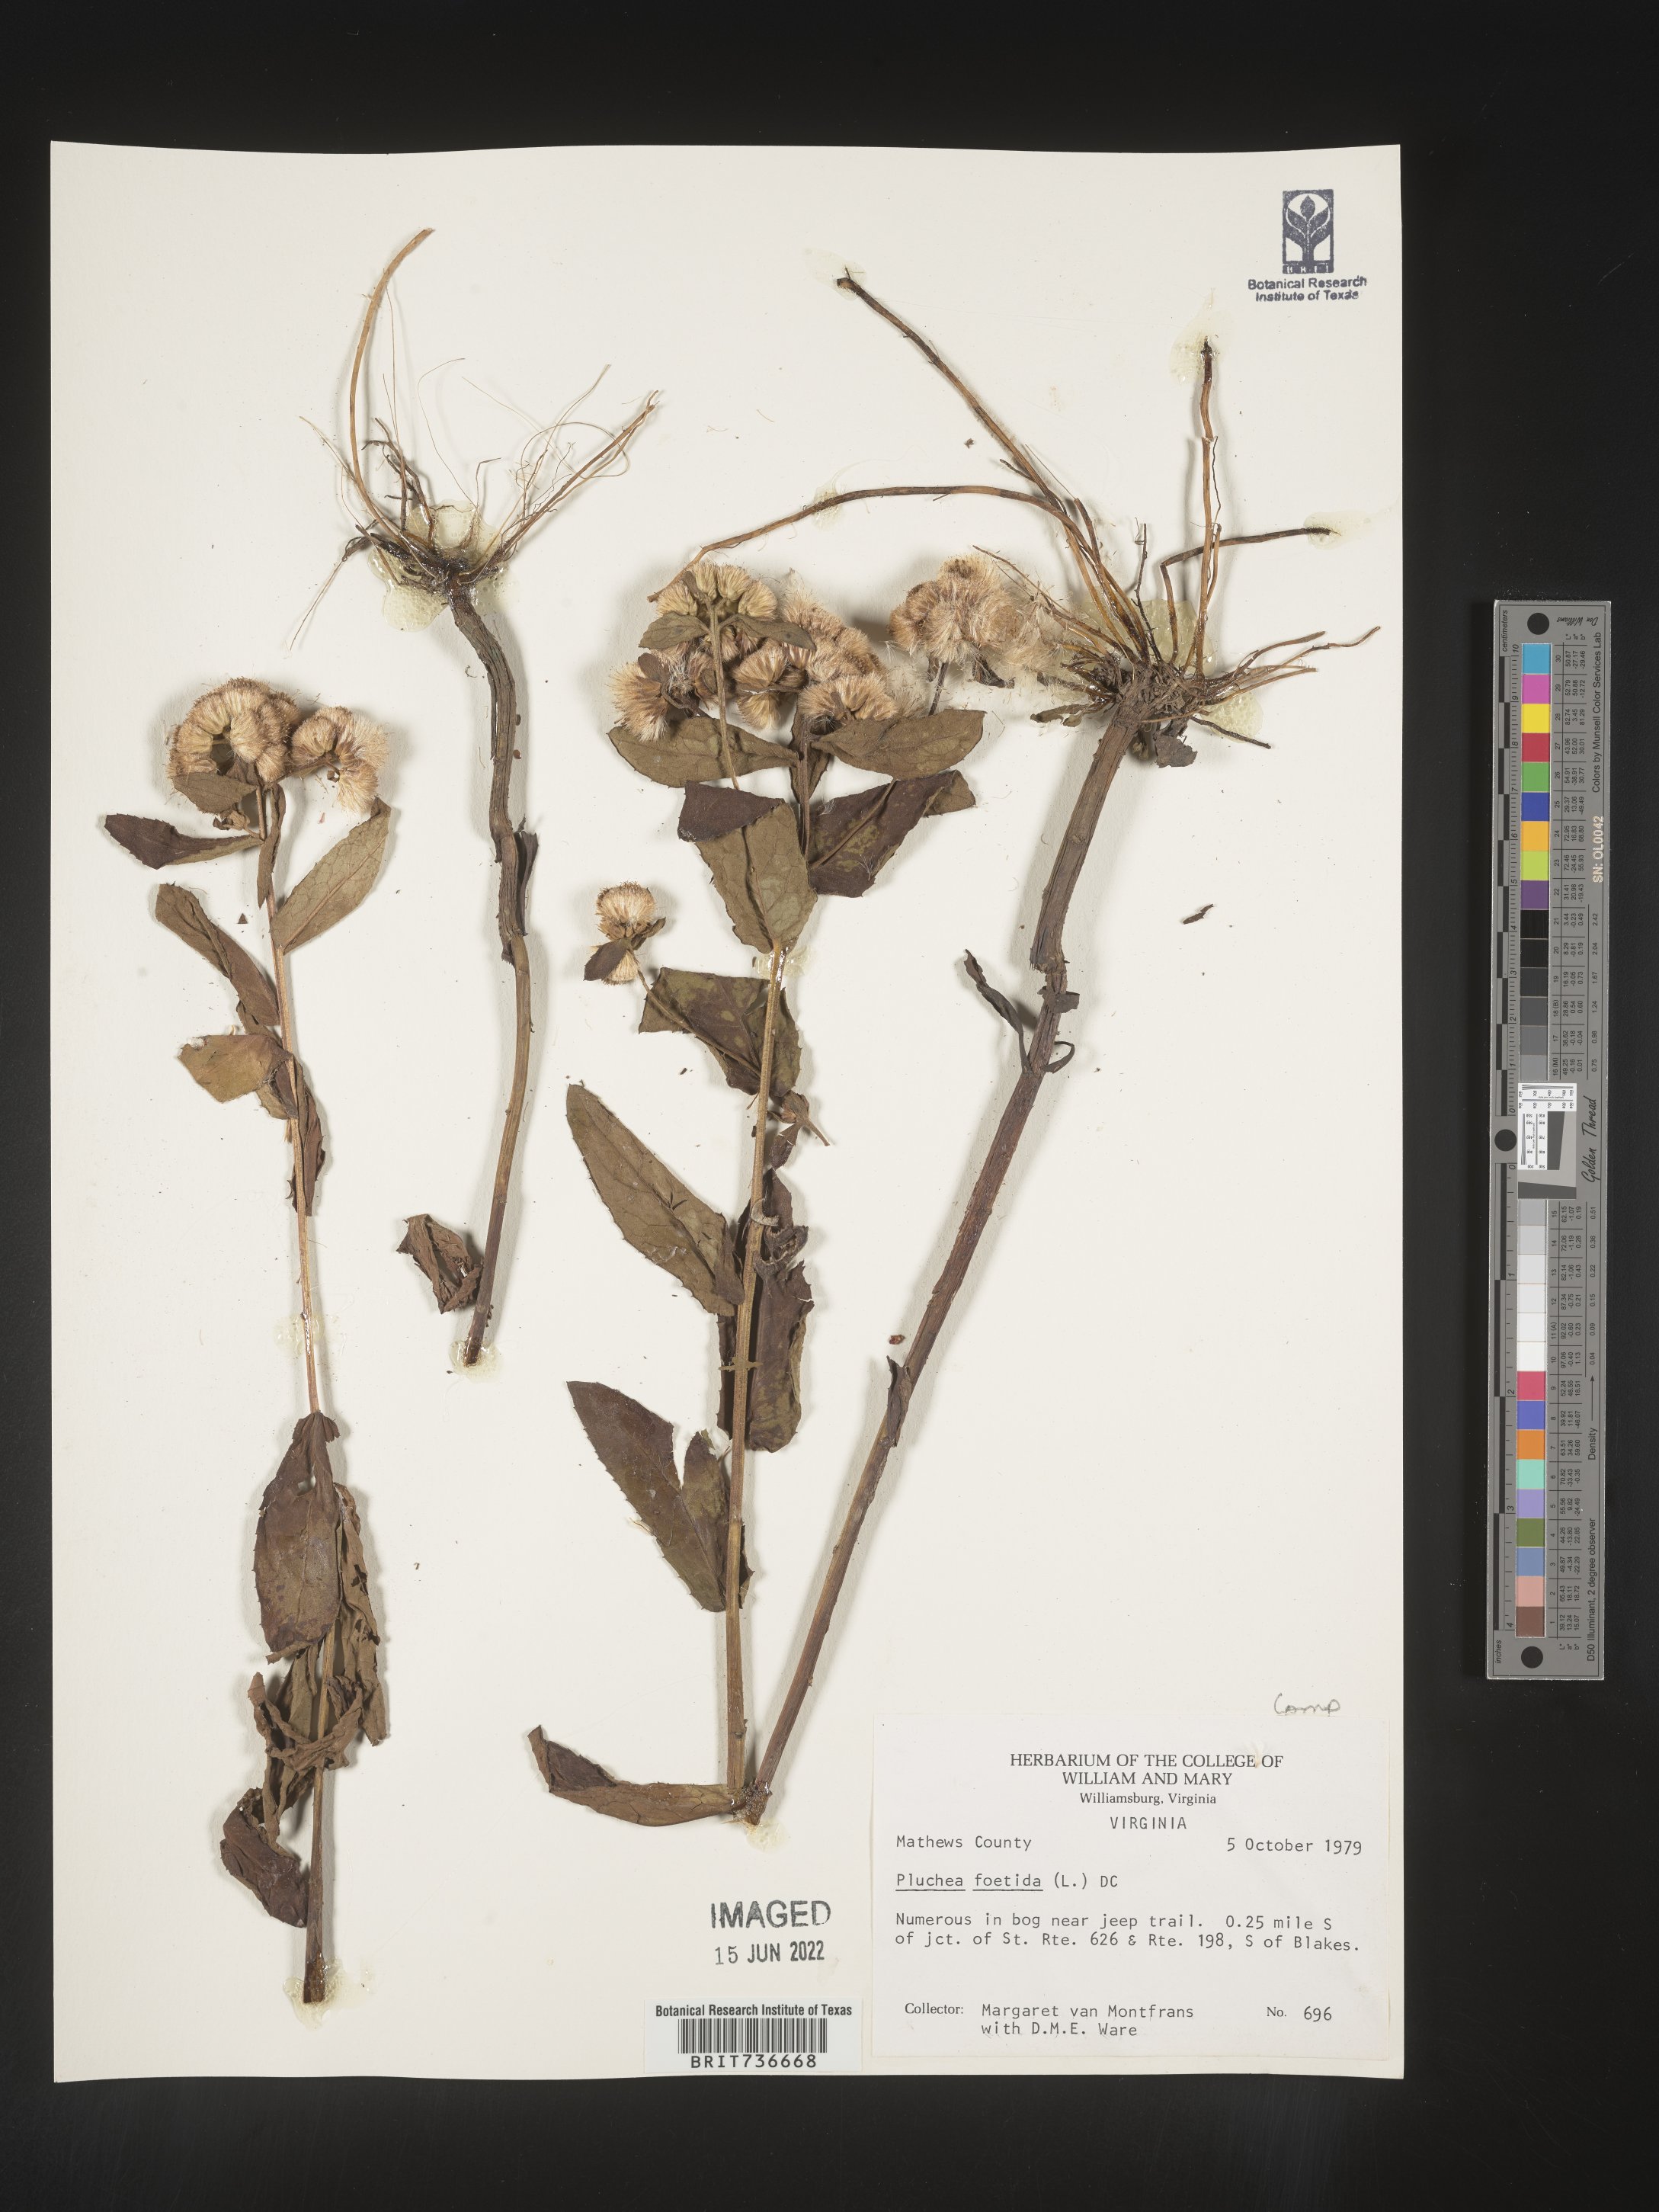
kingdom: Plantae
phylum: Tracheophyta
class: Magnoliopsida
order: Asterales
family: Asteraceae
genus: Pluchea
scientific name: Pluchea foetida
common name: Stinking camphorweed
